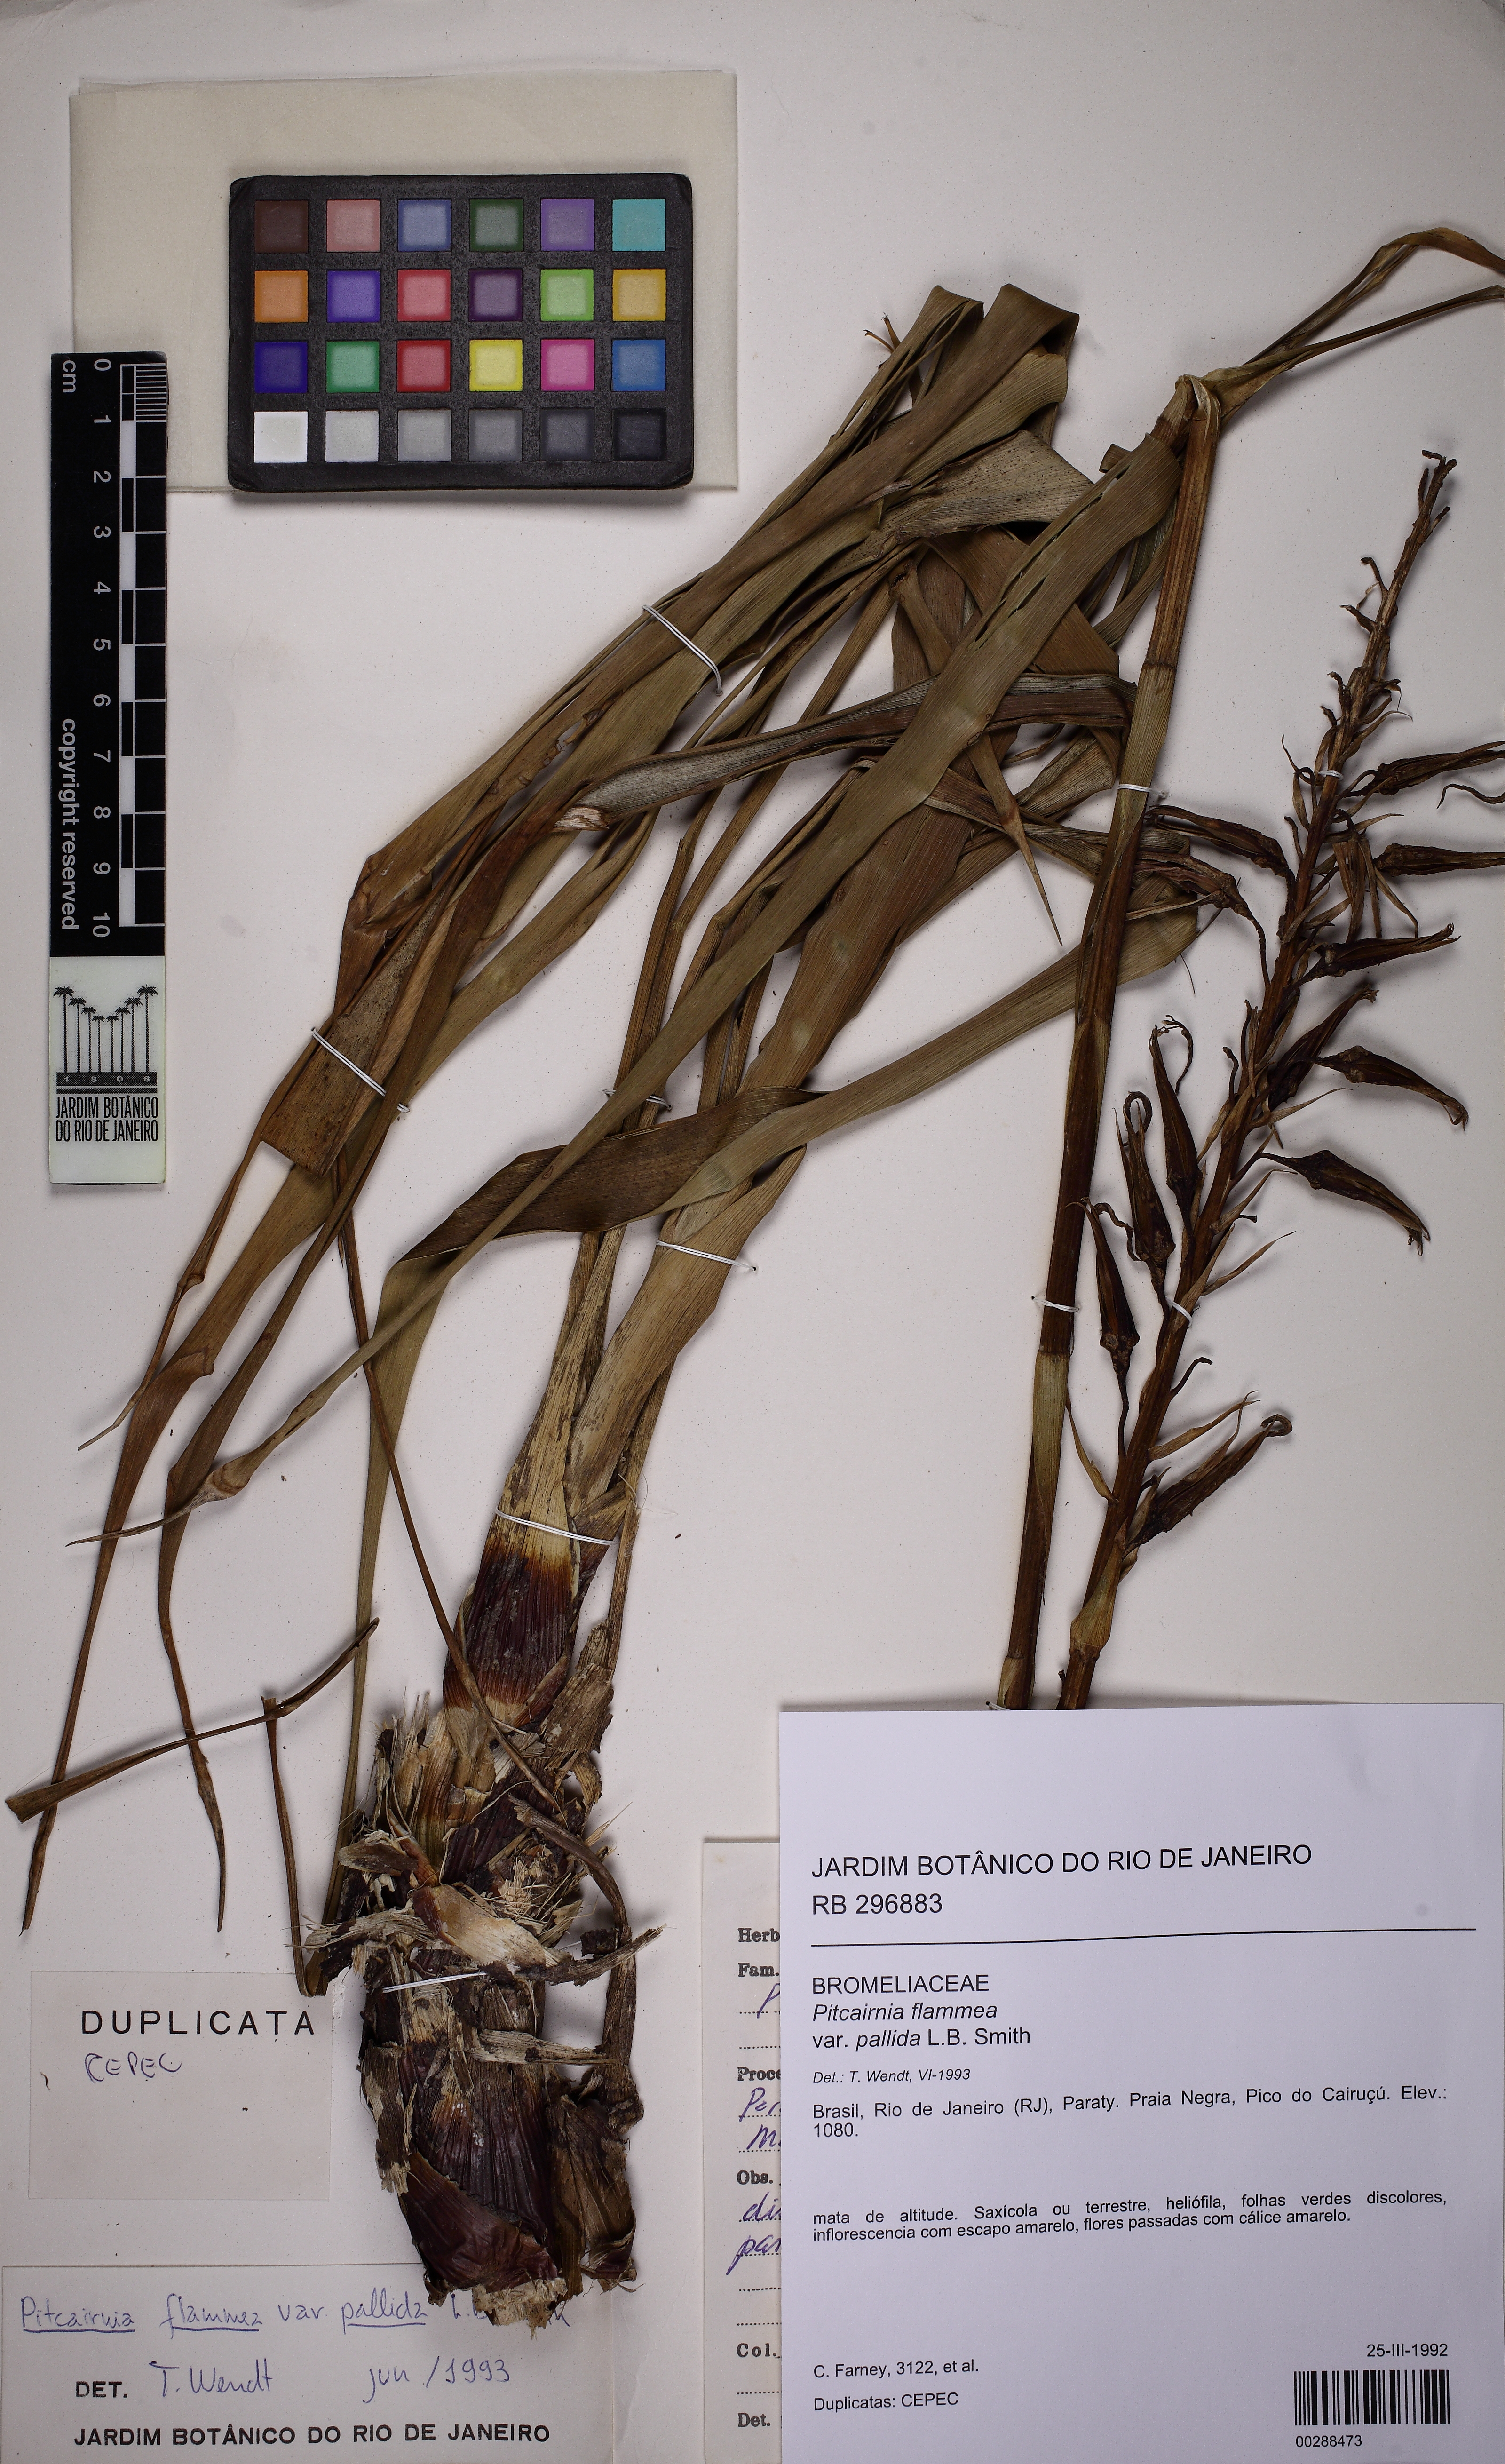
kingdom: Plantae
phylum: Tracheophyta
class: Liliopsida
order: Poales
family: Bromeliaceae
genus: Pitcairnia
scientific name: Pitcairnia wendtiae
